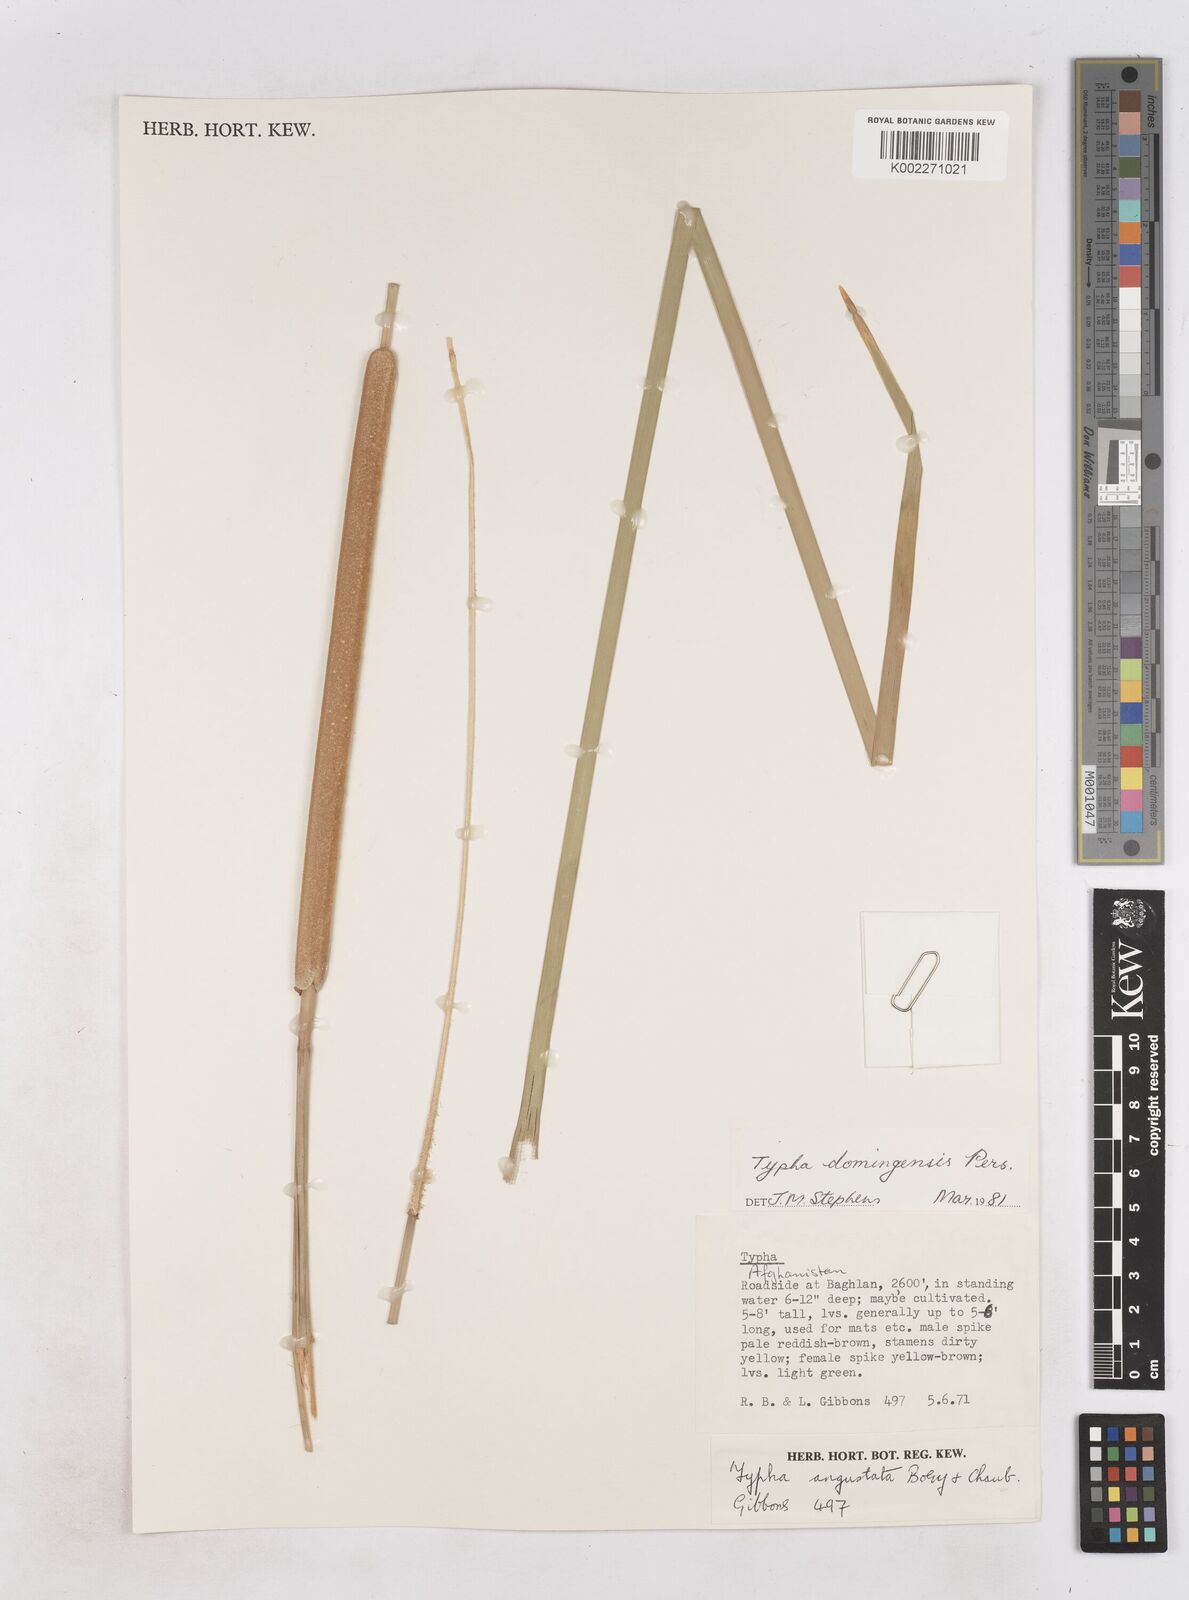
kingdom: Plantae
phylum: Tracheophyta
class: Liliopsida
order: Poales
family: Typhaceae
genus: Typha
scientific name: Typha domingensis
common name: Southern cattail
